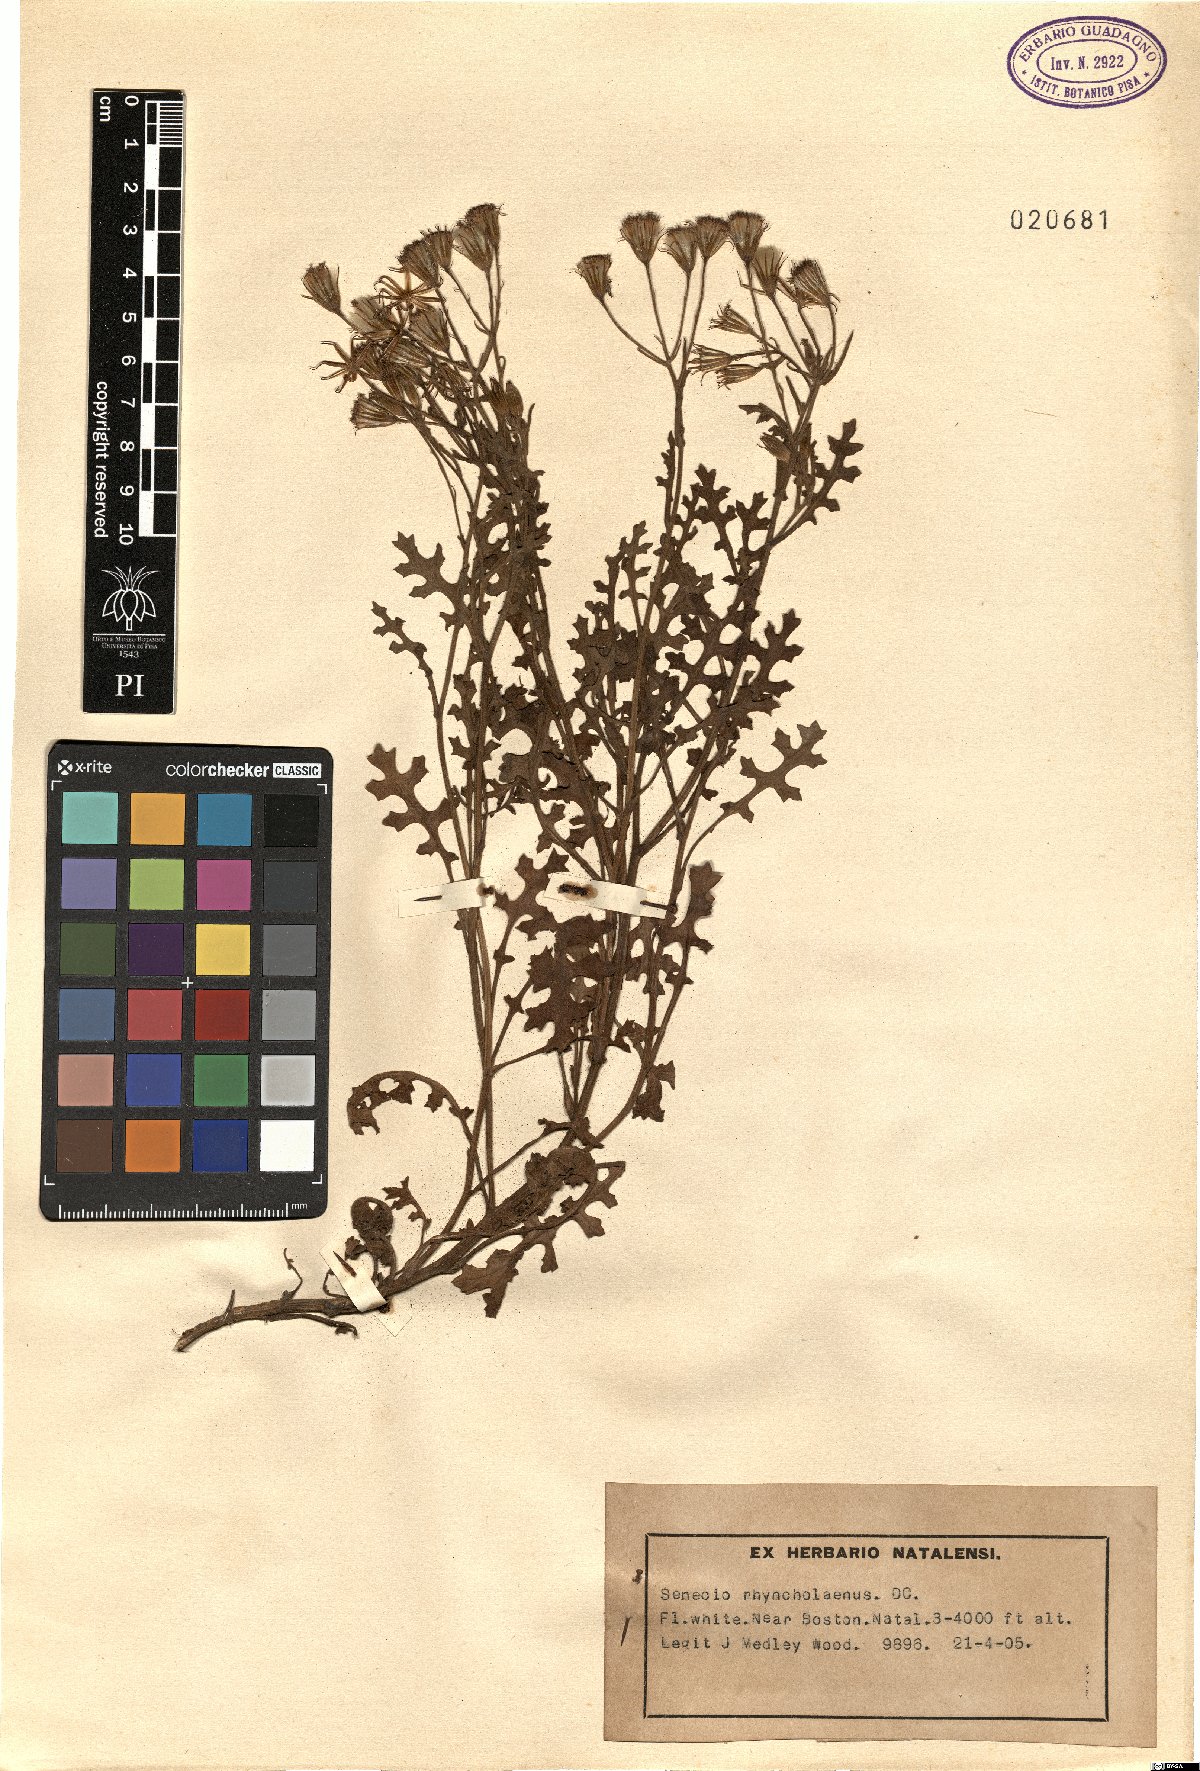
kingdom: Plantae
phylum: Tracheophyta
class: Magnoliopsida
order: Asterales
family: Asteraceae
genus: Senecio
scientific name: Senecio rhyncholaenus
